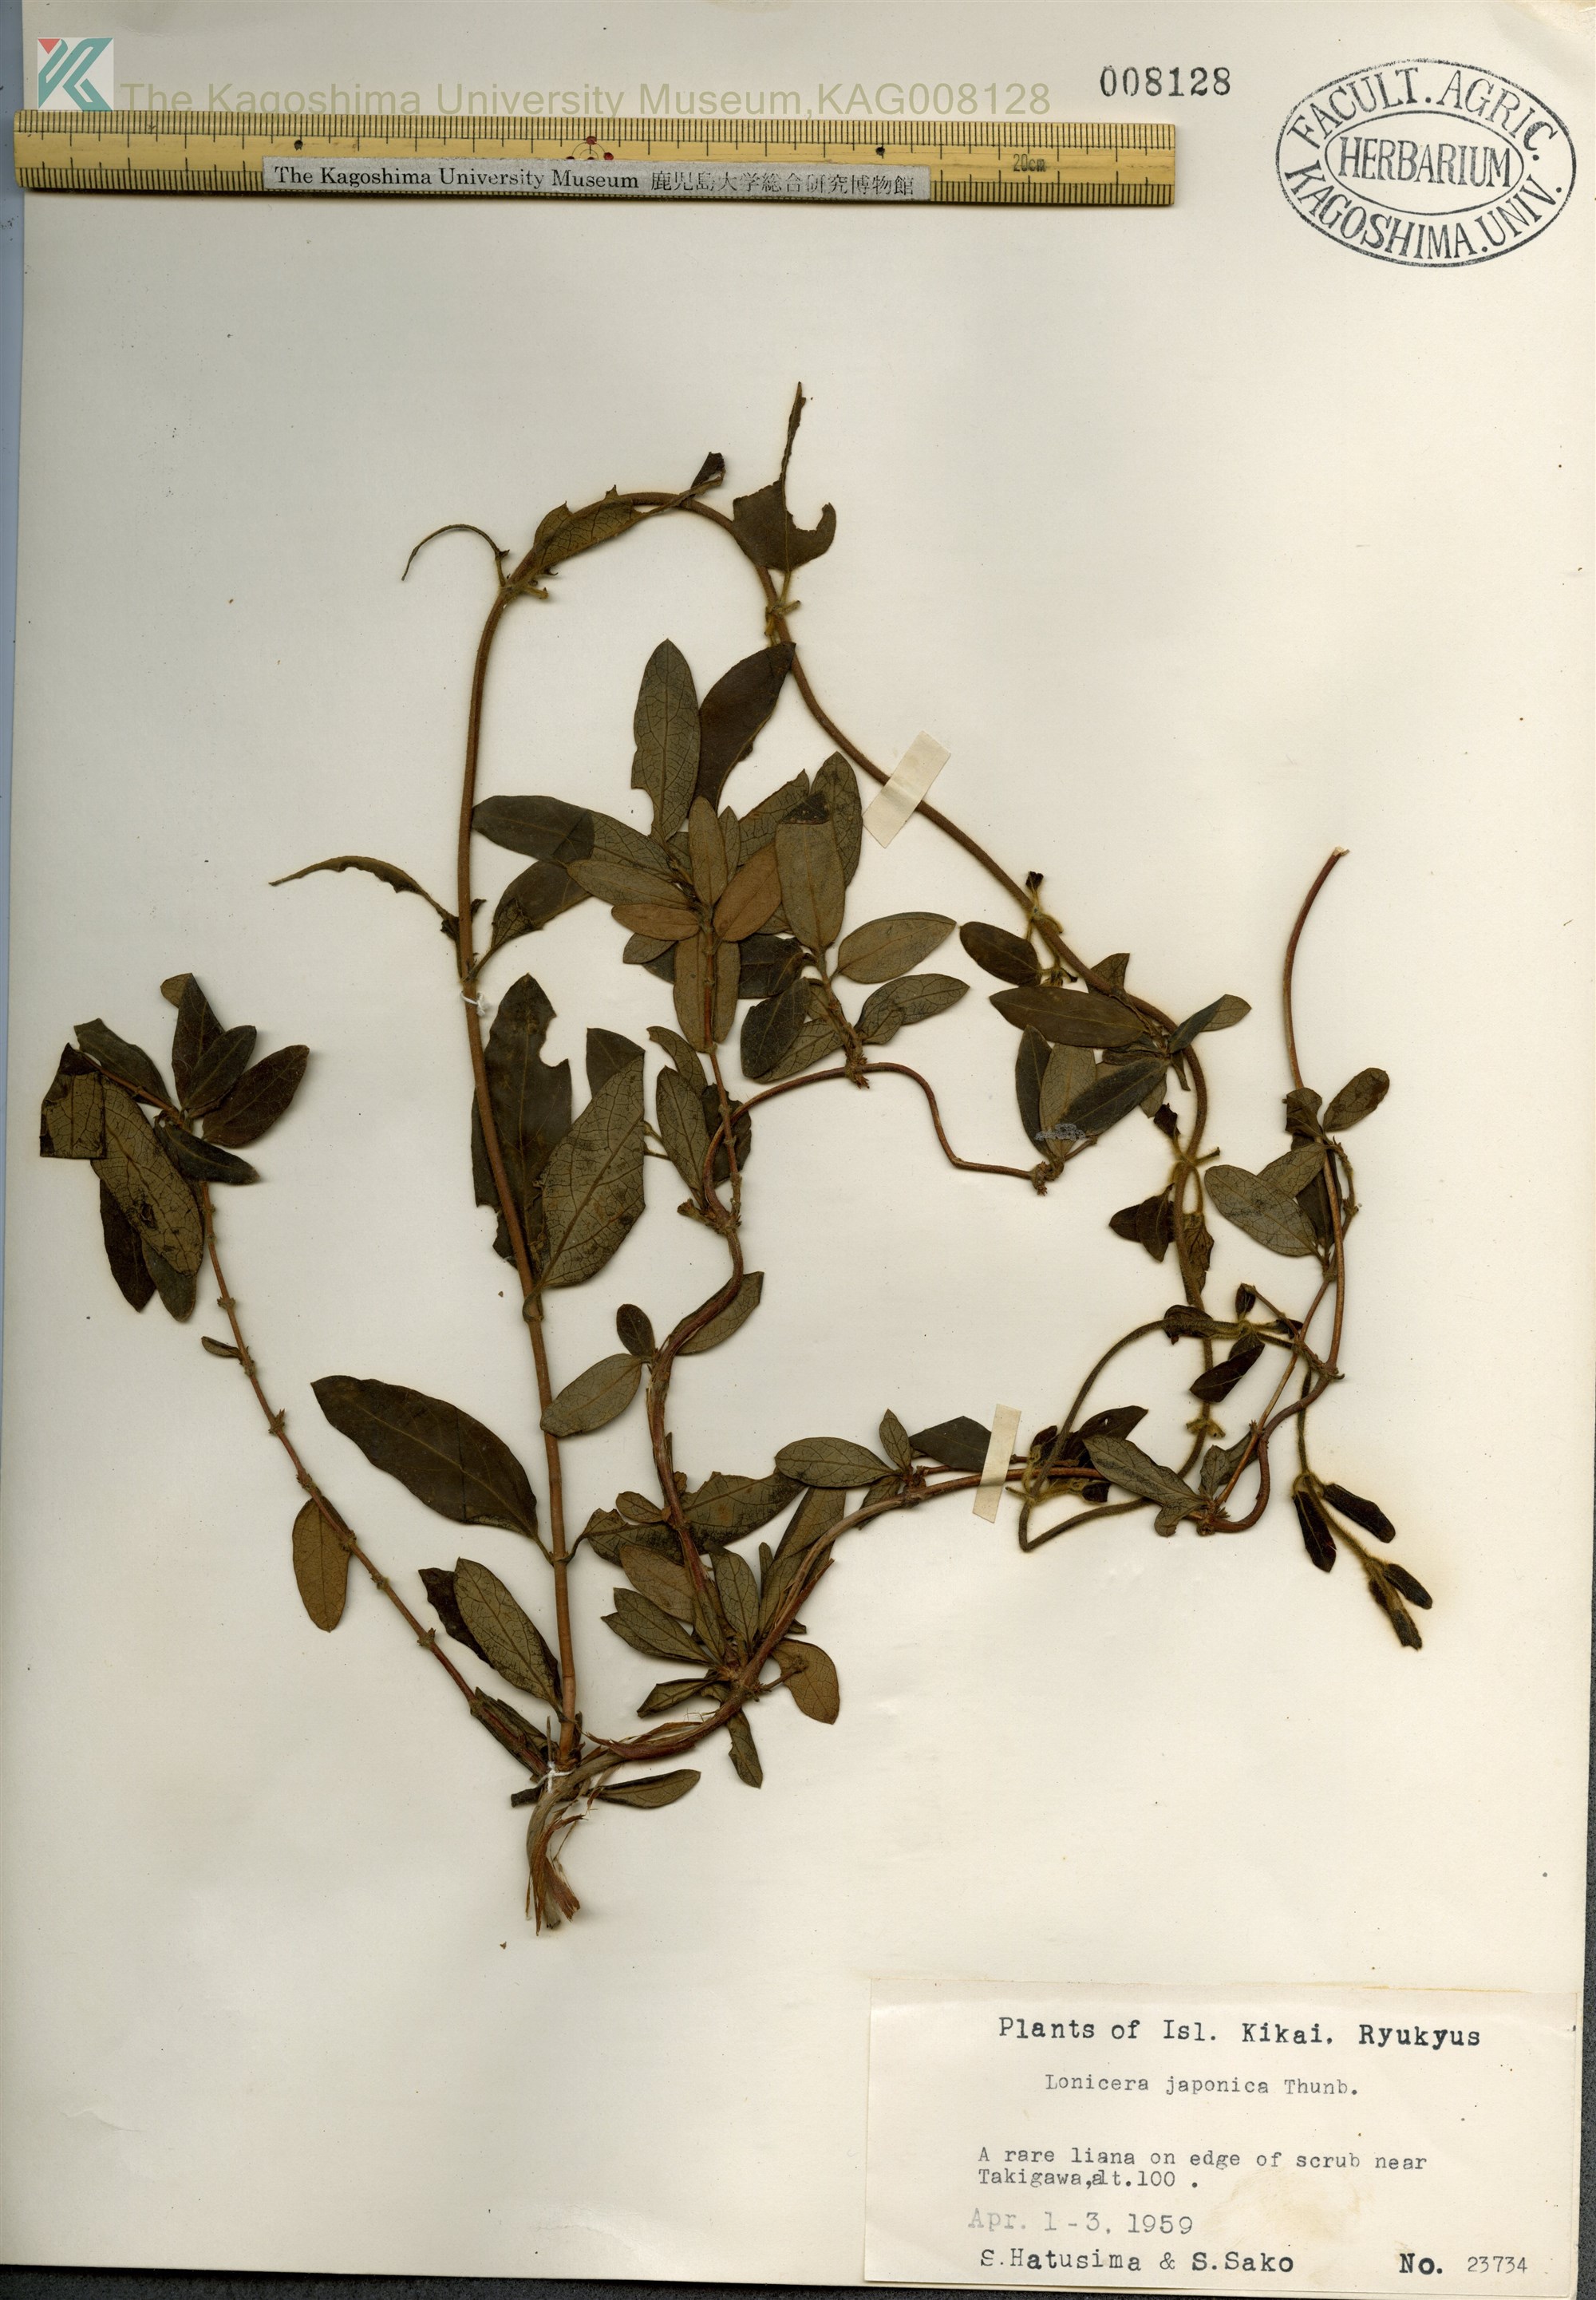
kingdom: Plantae
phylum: Tracheophyta
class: Magnoliopsida
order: Dipsacales
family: Caprifoliaceae
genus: Lonicera
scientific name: Lonicera japonica
